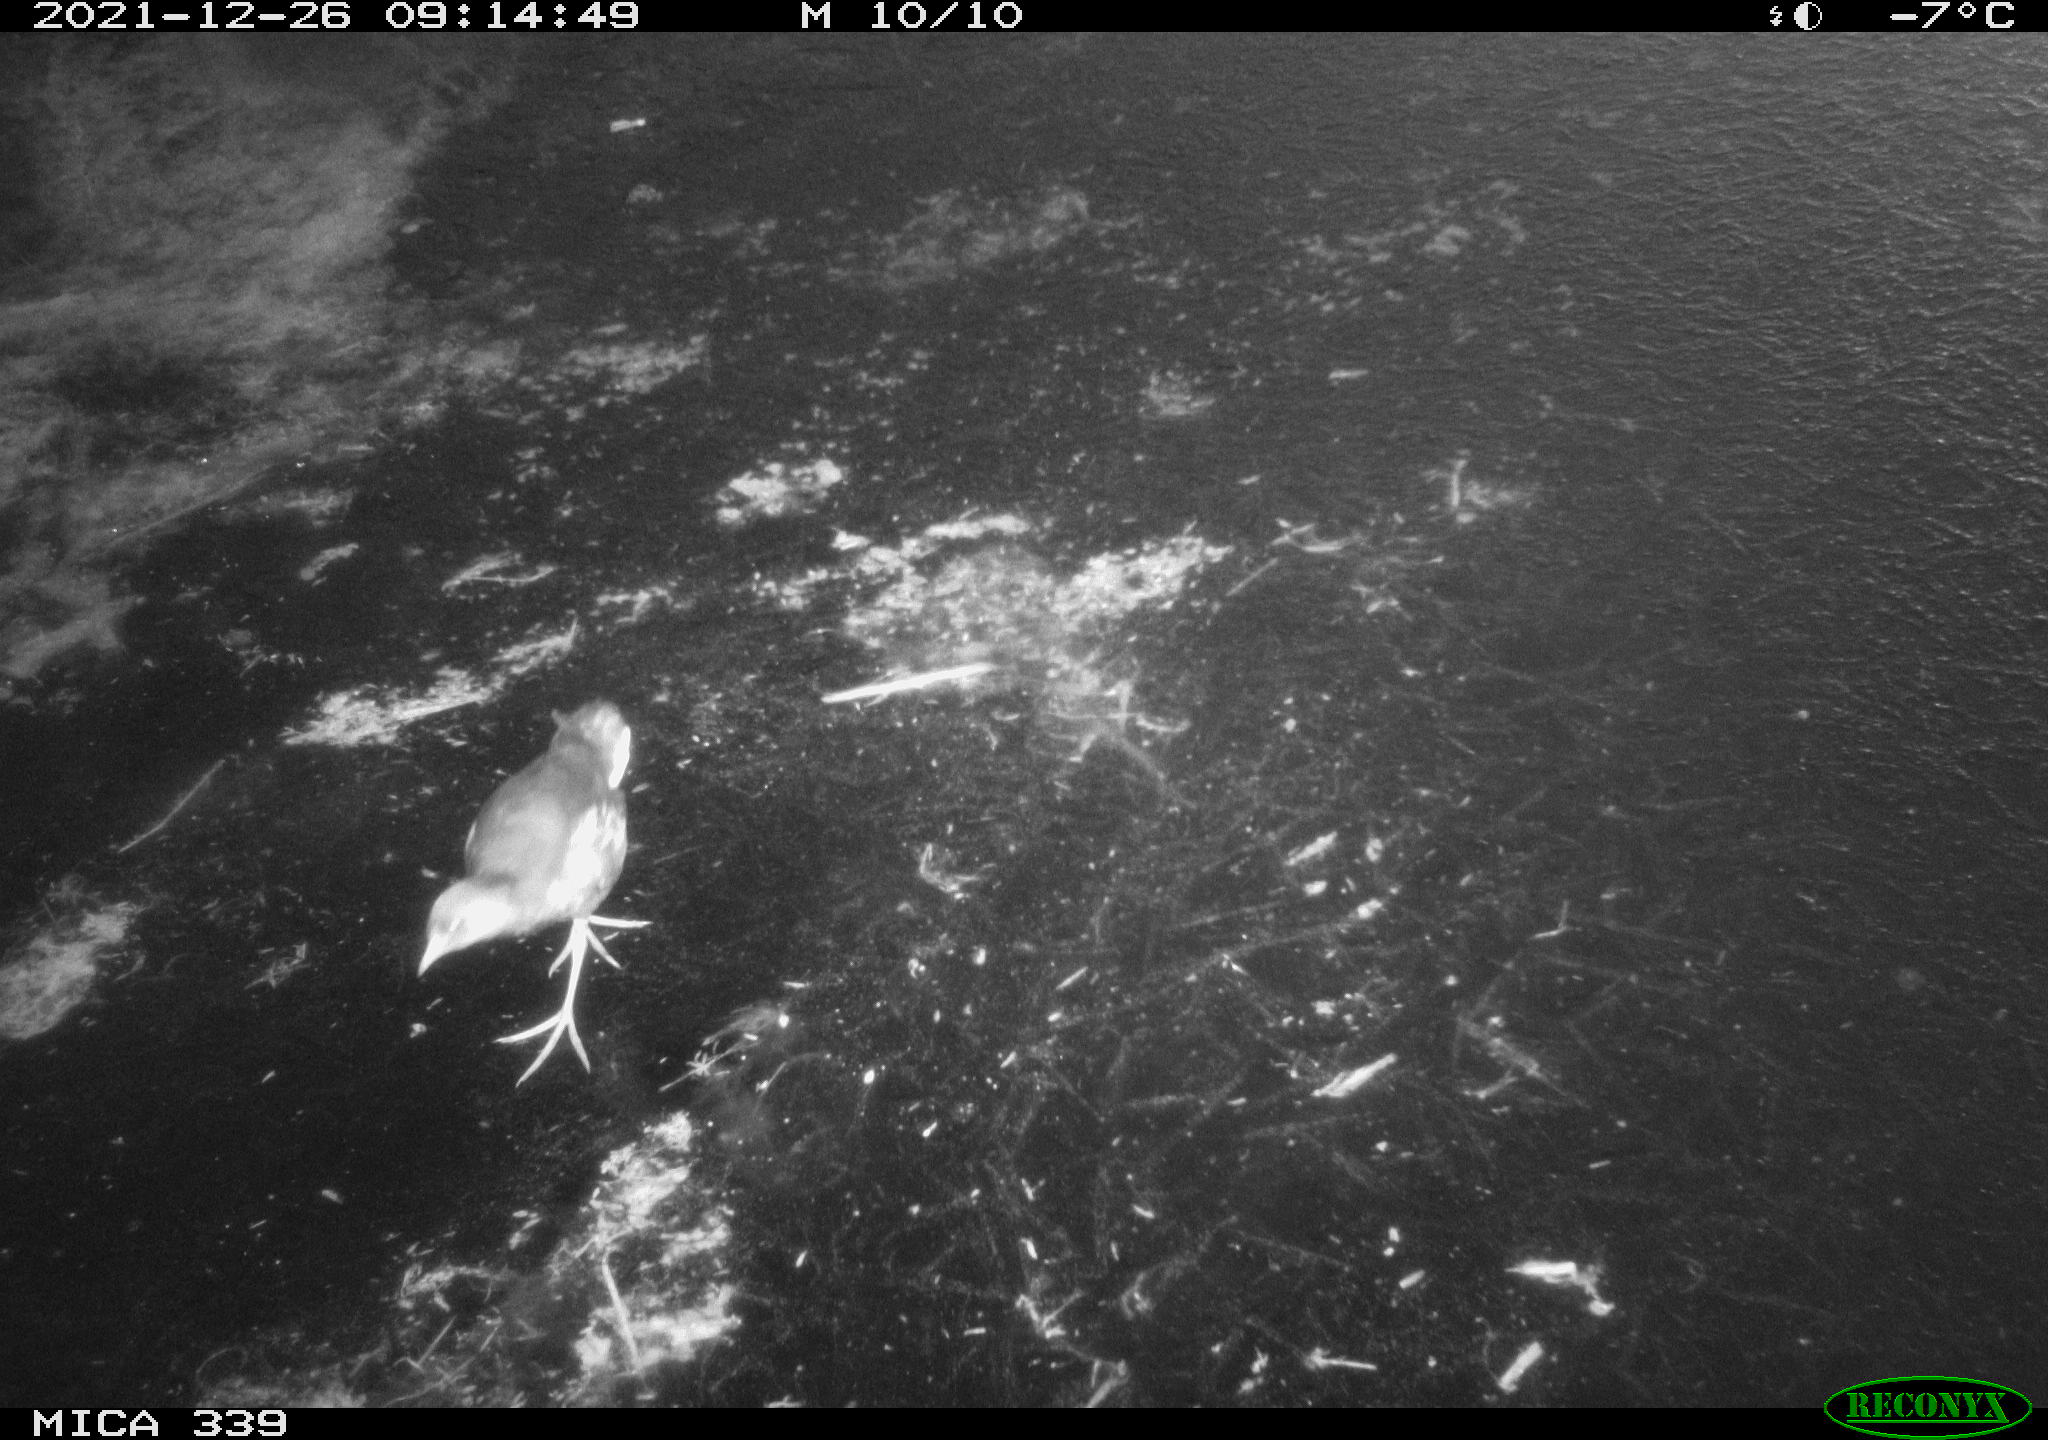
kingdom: Animalia
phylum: Chordata
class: Aves
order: Gruiformes
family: Rallidae
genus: Gallinula
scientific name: Gallinula chloropus
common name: Common moorhen
